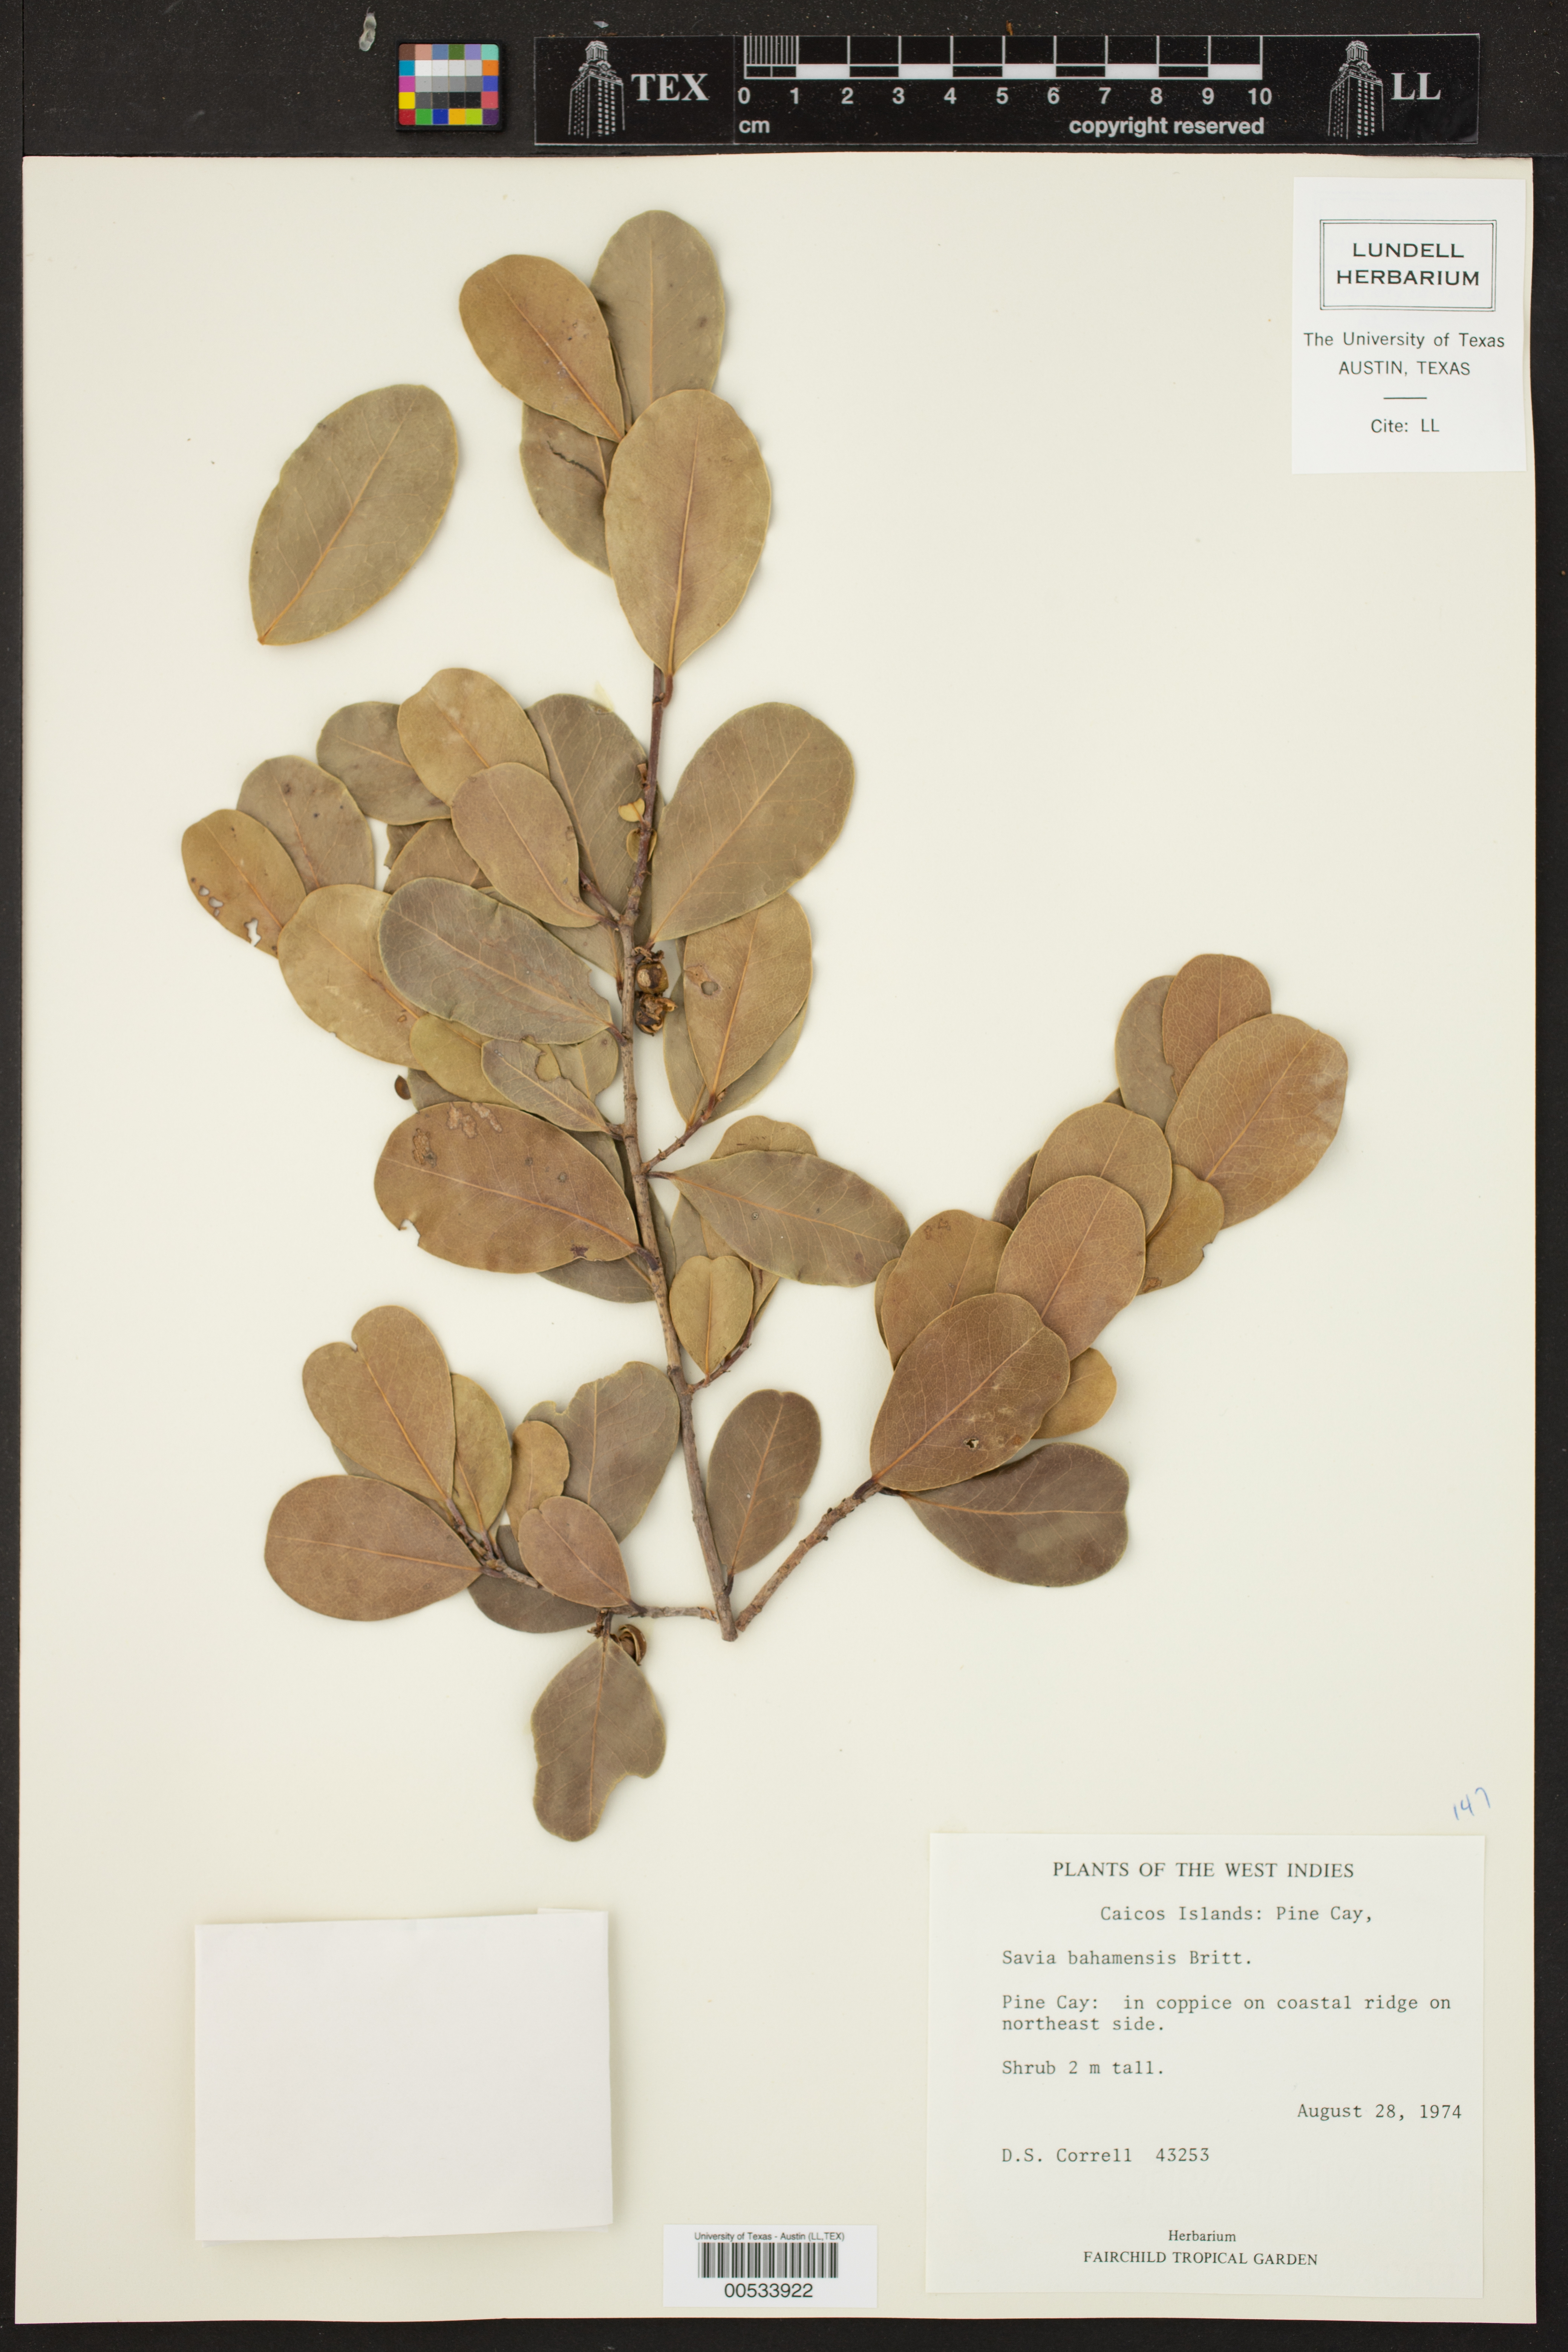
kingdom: Plantae
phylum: Tracheophyta
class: Magnoliopsida
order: Malpighiales
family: Phyllanthaceae
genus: Heterosavia
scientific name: Heterosavia bahamensis
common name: Bahama maidenbush
